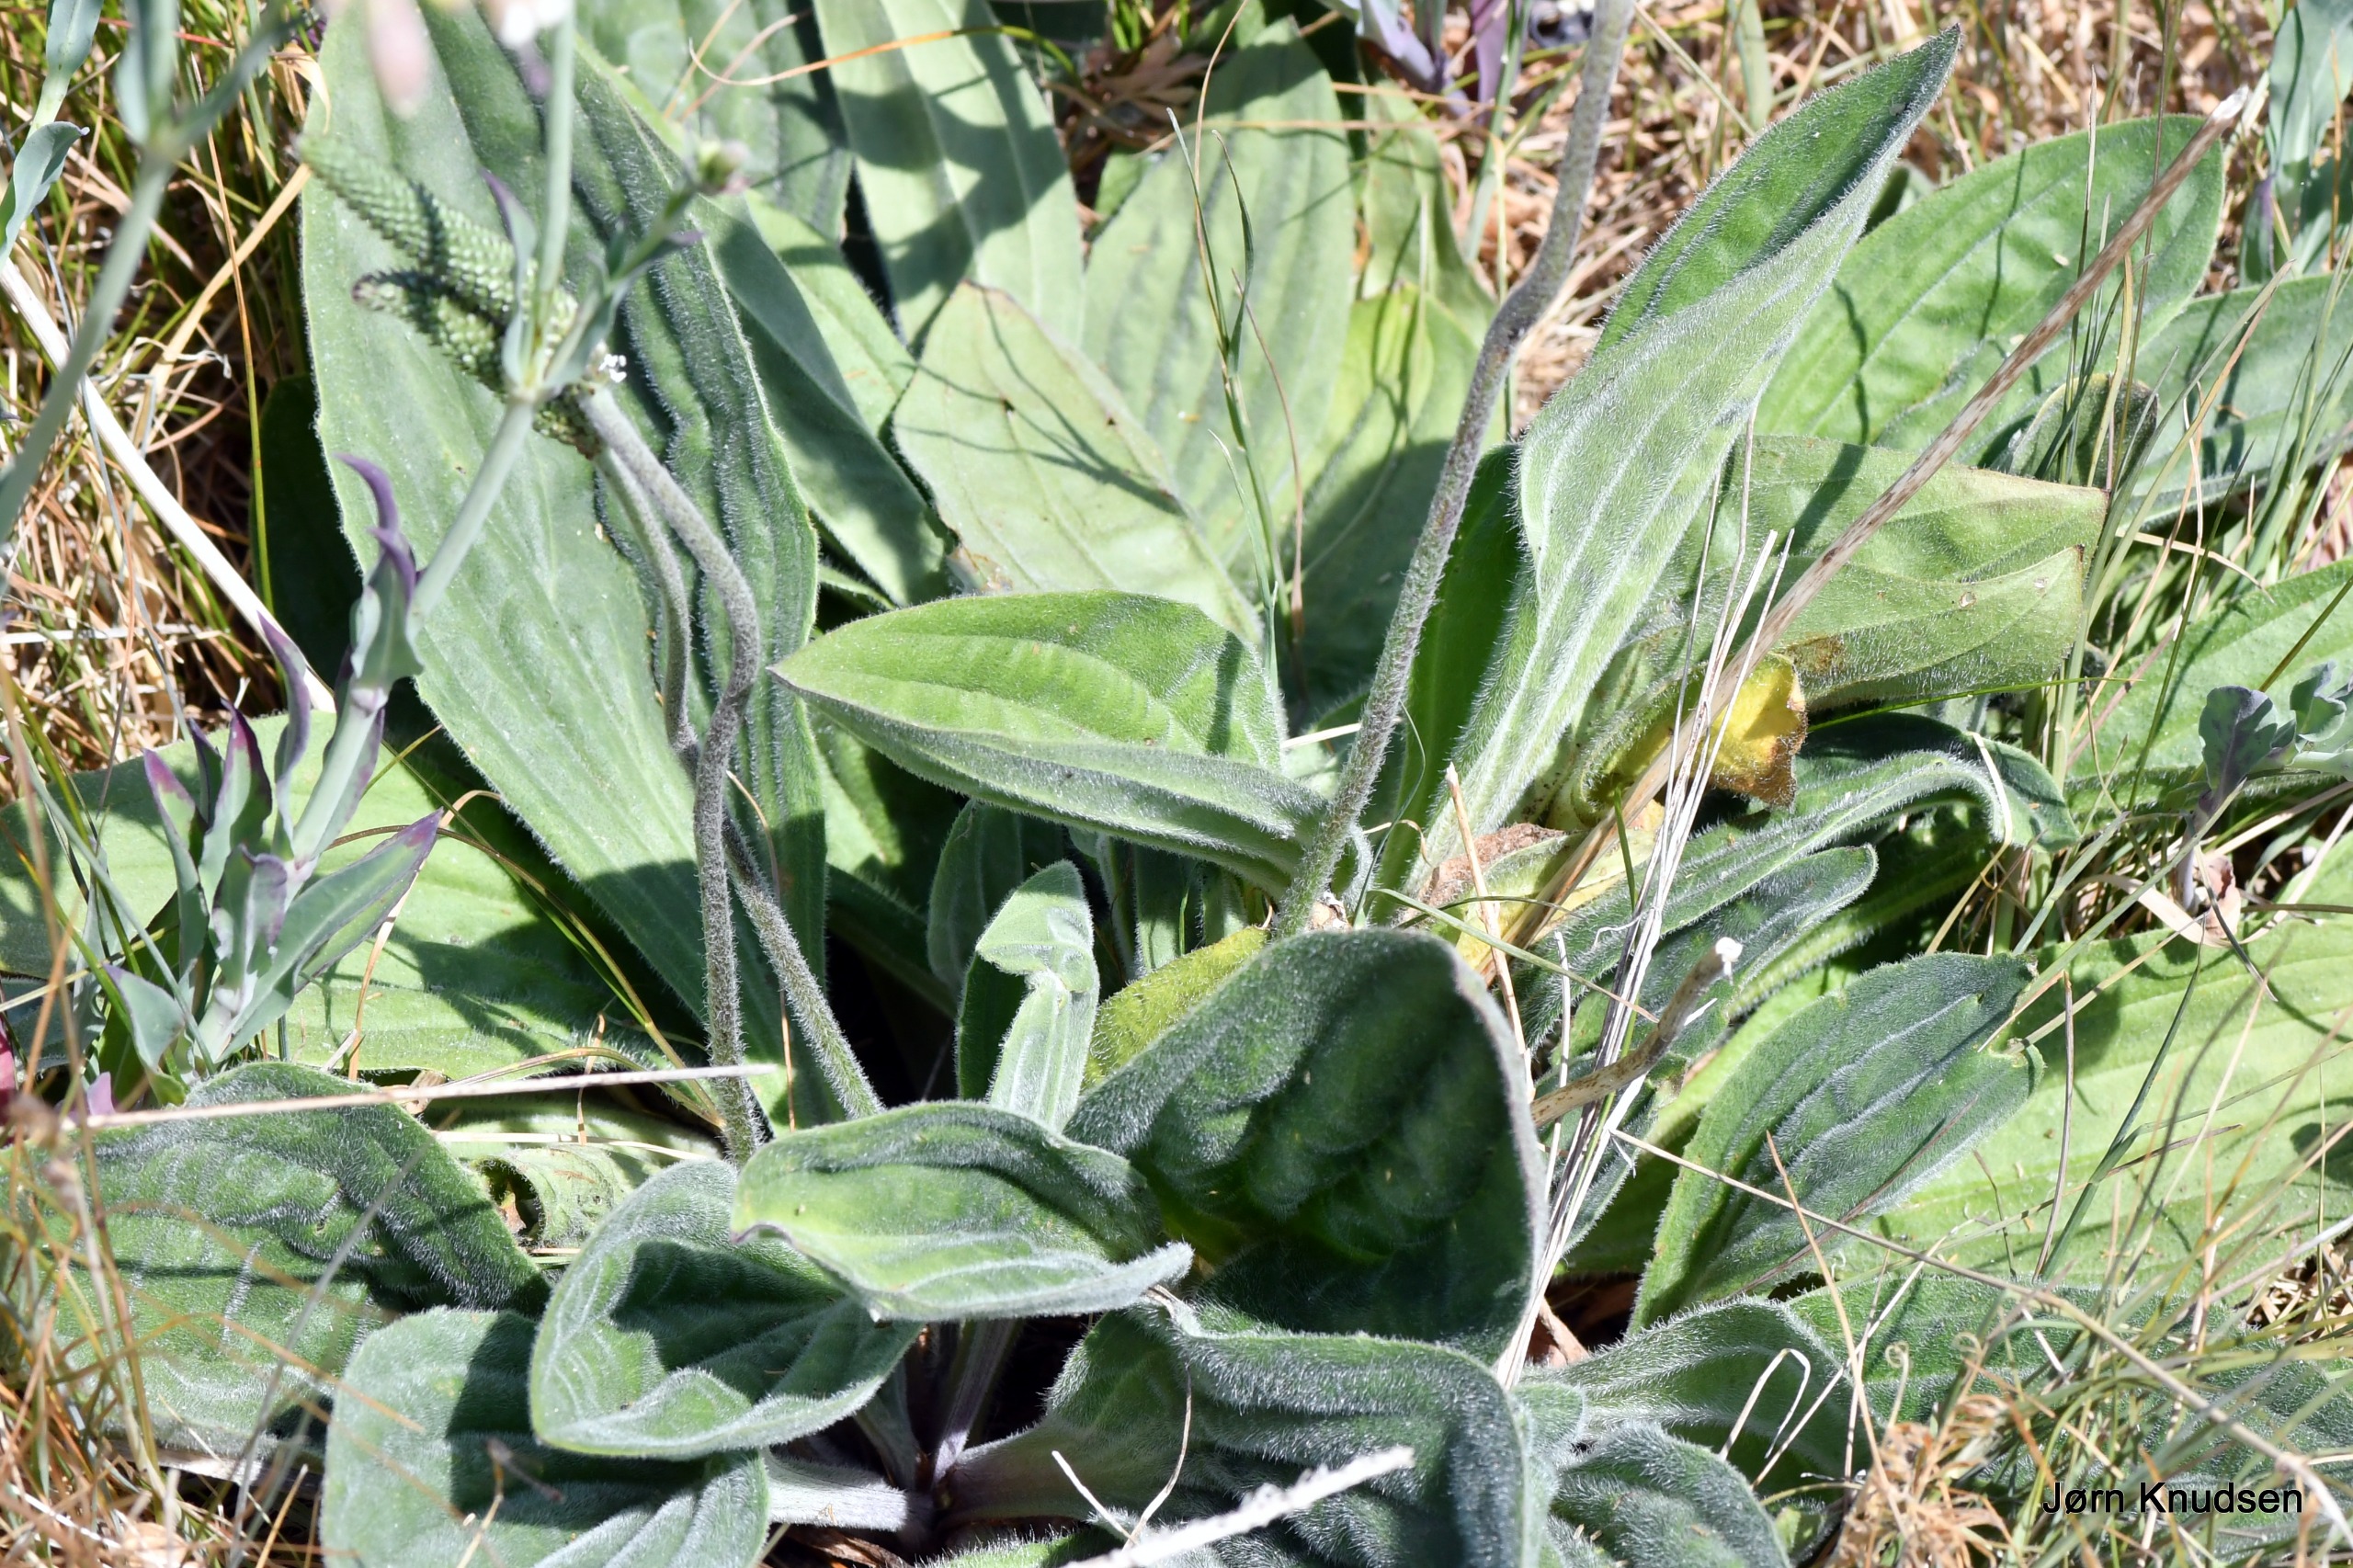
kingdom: Plantae
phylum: Tracheophyta
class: Magnoliopsida
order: Lamiales
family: Plantaginaceae
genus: Plantago
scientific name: Plantago media
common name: Dunet vejbred
